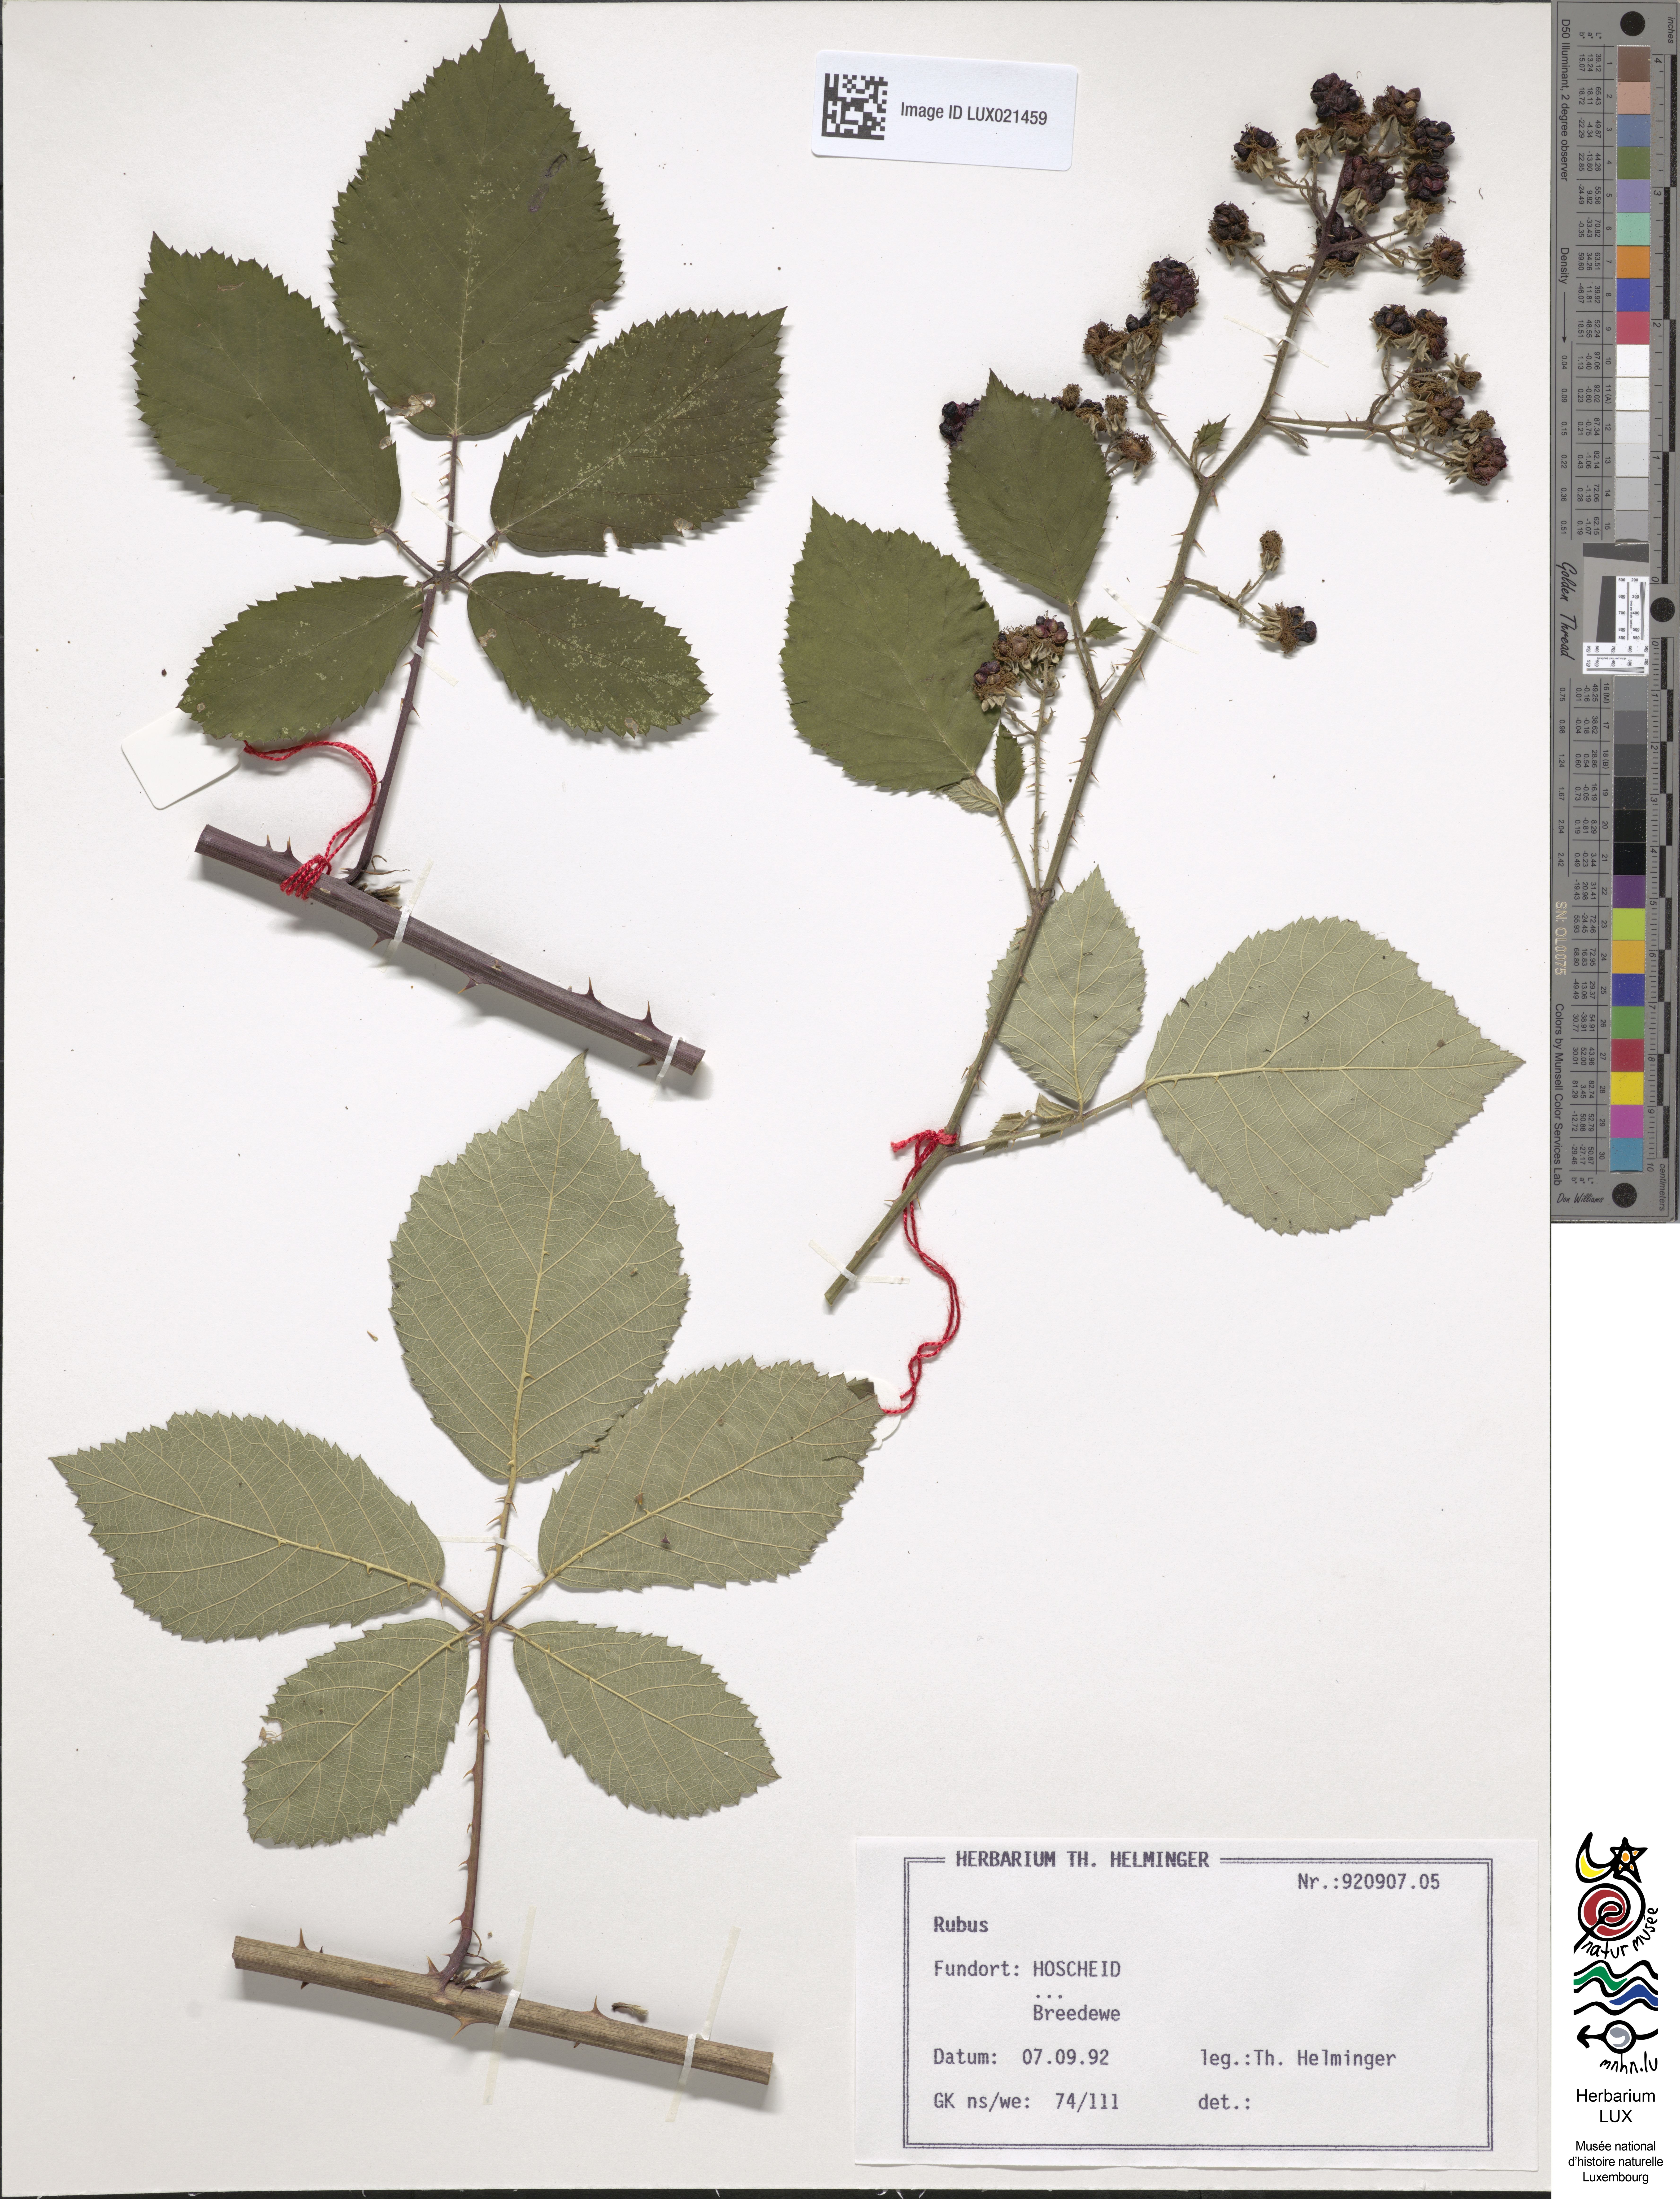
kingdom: Plantae
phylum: Tracheophyta
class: Magnoliopsida
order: Rosales
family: Rosaceae
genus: Rubus
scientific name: Rubus
